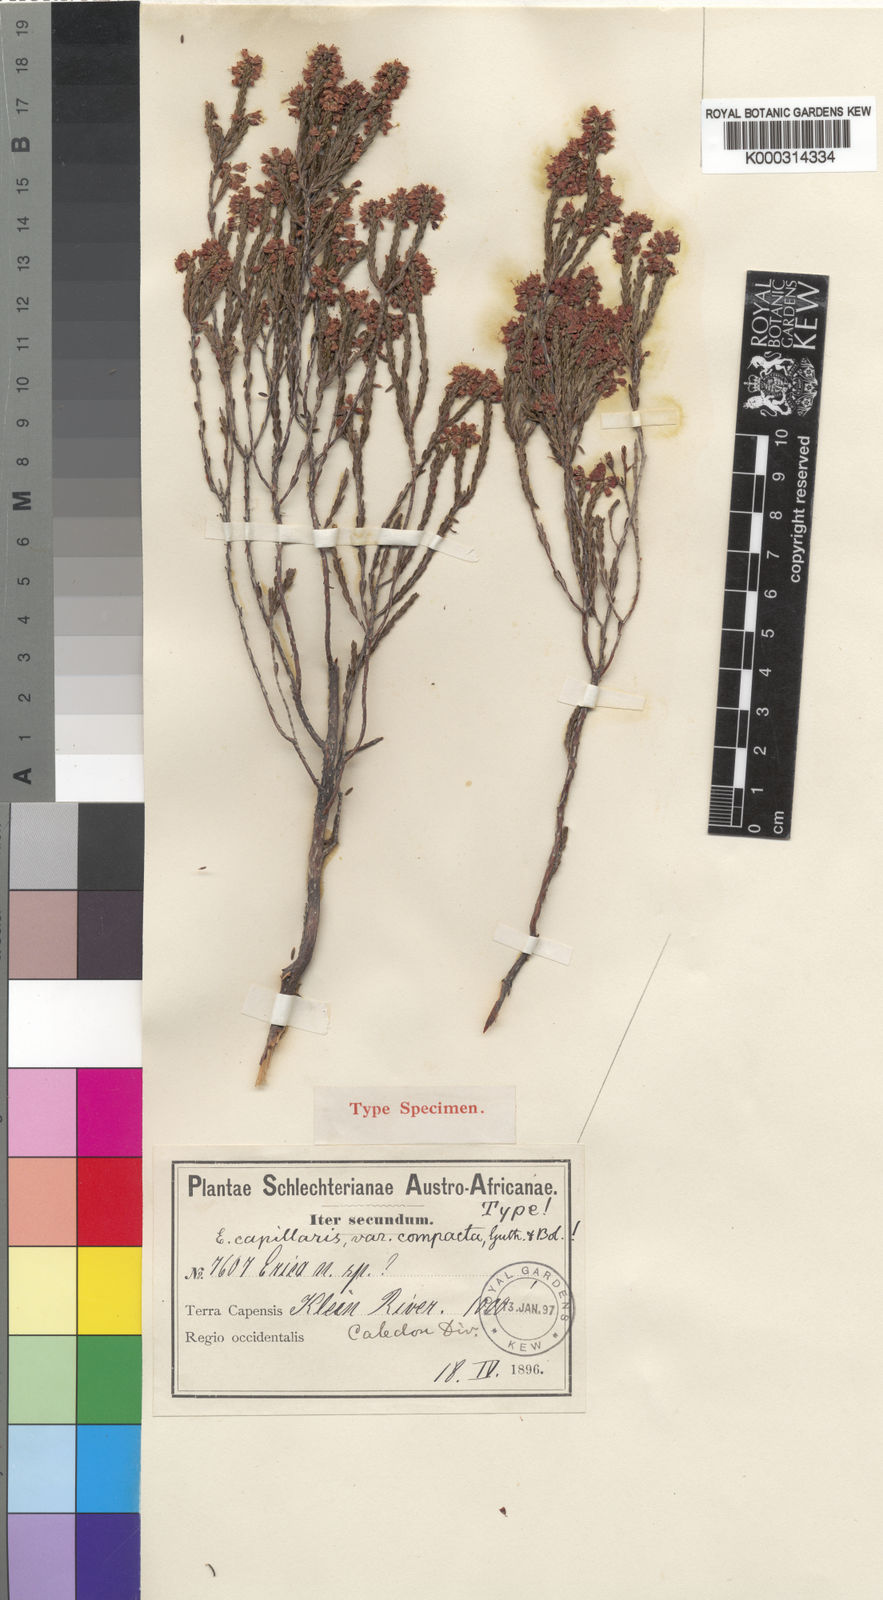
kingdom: Plantae
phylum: Tracheophyta
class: Magnoliopsida
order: Ericales
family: Ericaceae
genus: Erica
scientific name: Erica capillaris
